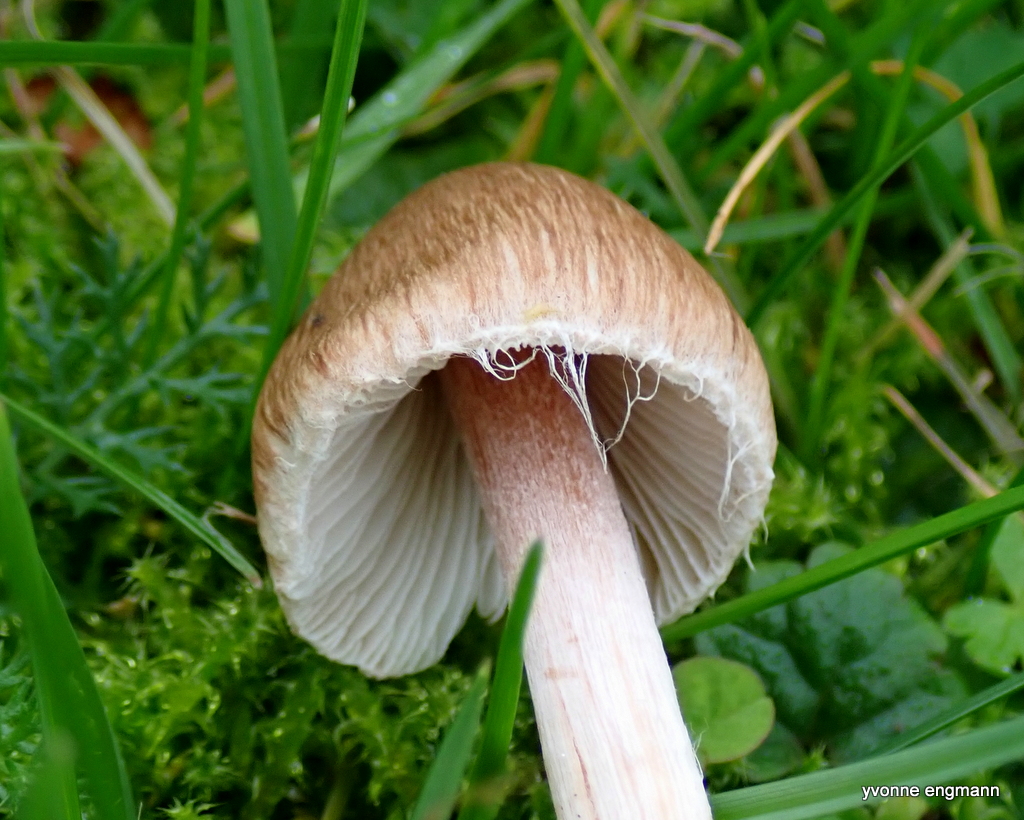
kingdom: Fungi
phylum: Basidiomycota
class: Agaricomycetes
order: Agaricales
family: Inocybaceae
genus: Inocybe
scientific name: Inocybe
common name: trævlhat
